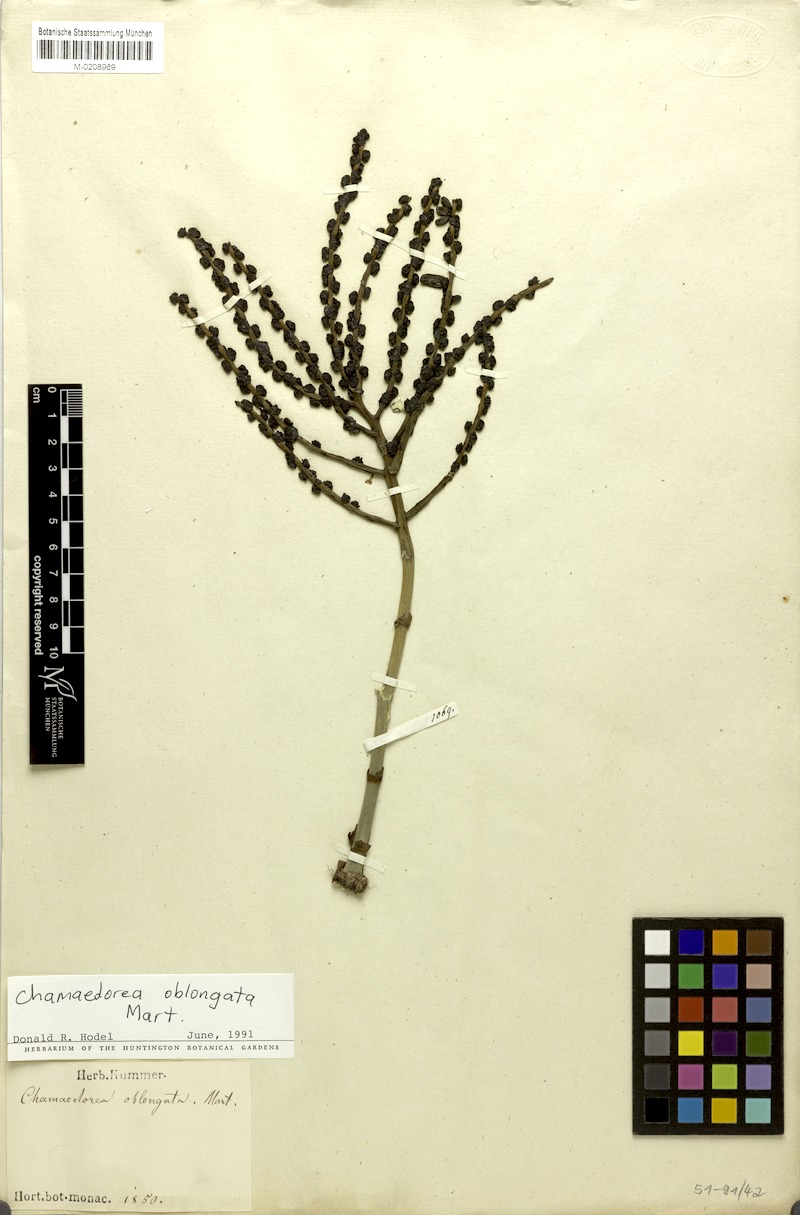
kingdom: Plantae
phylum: Tracheophyta
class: Liliopsida
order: Arecales
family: Arecaceae
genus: Chamaedorea
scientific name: Chamaedorea oblongata
